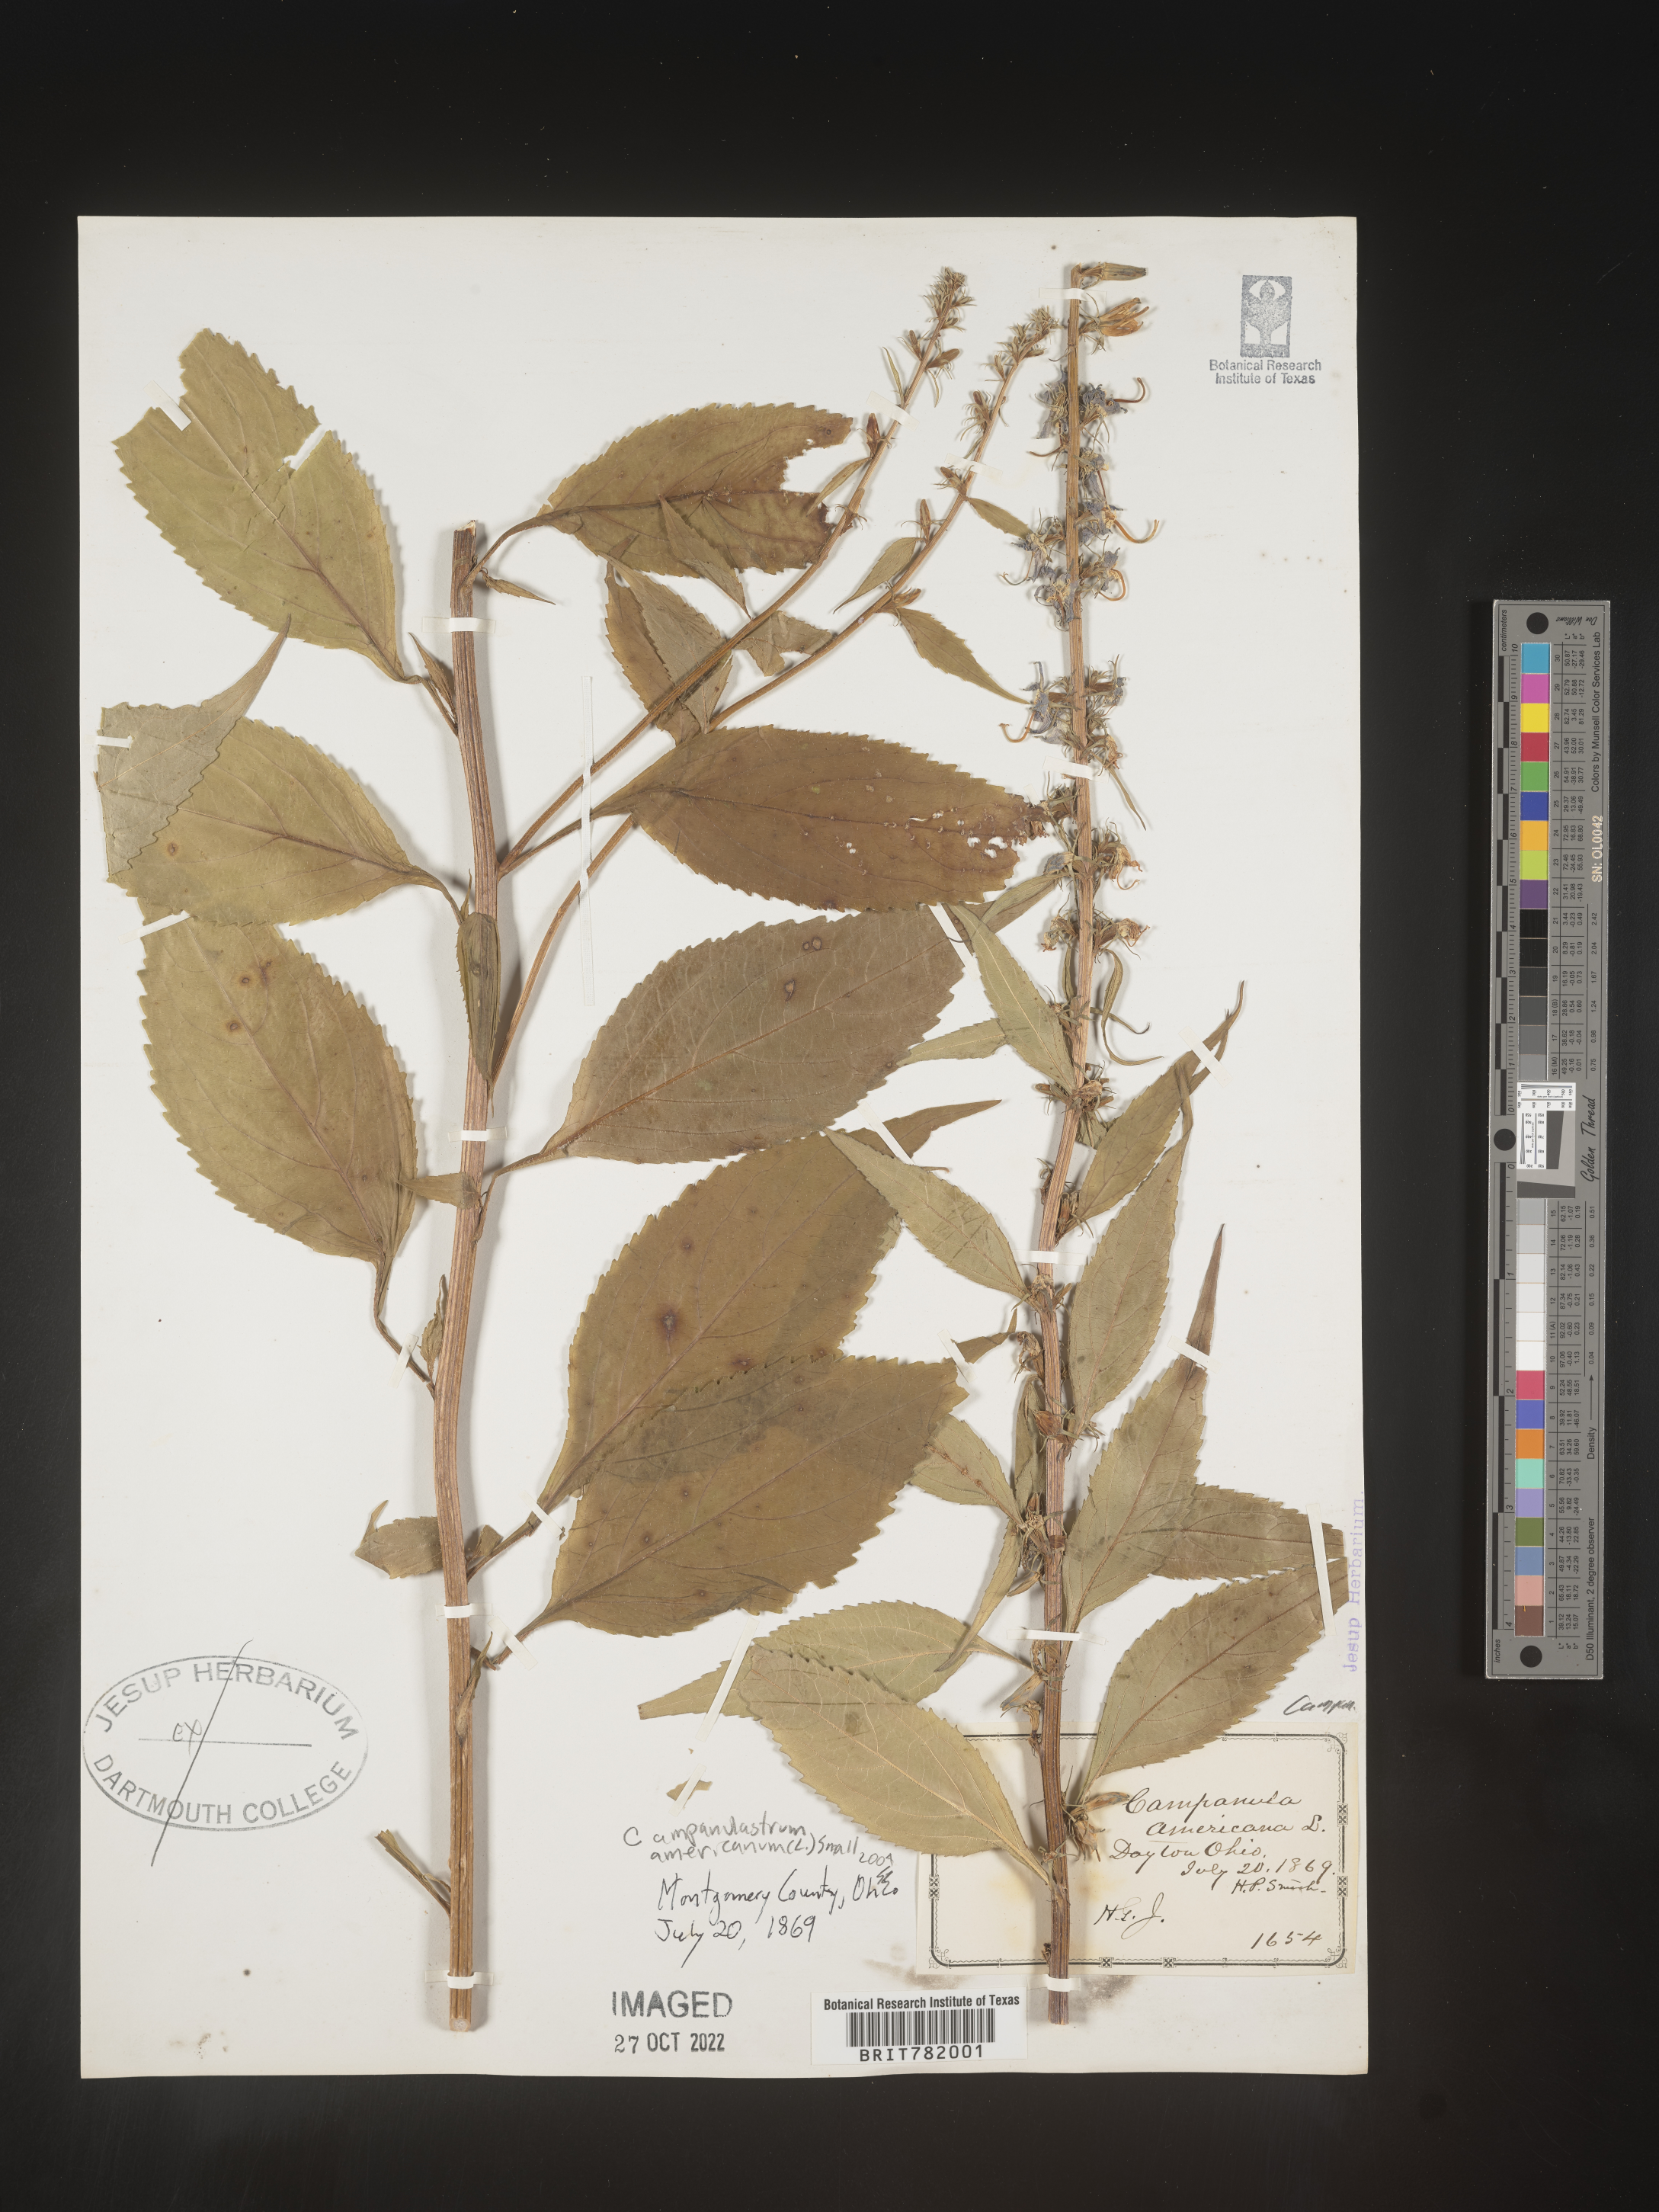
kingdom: Plantae
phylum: Tracheophyta
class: Magnoliopsida
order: Asterales
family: Campanulaceae
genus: Campanulastrum
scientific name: Campanulastrum
